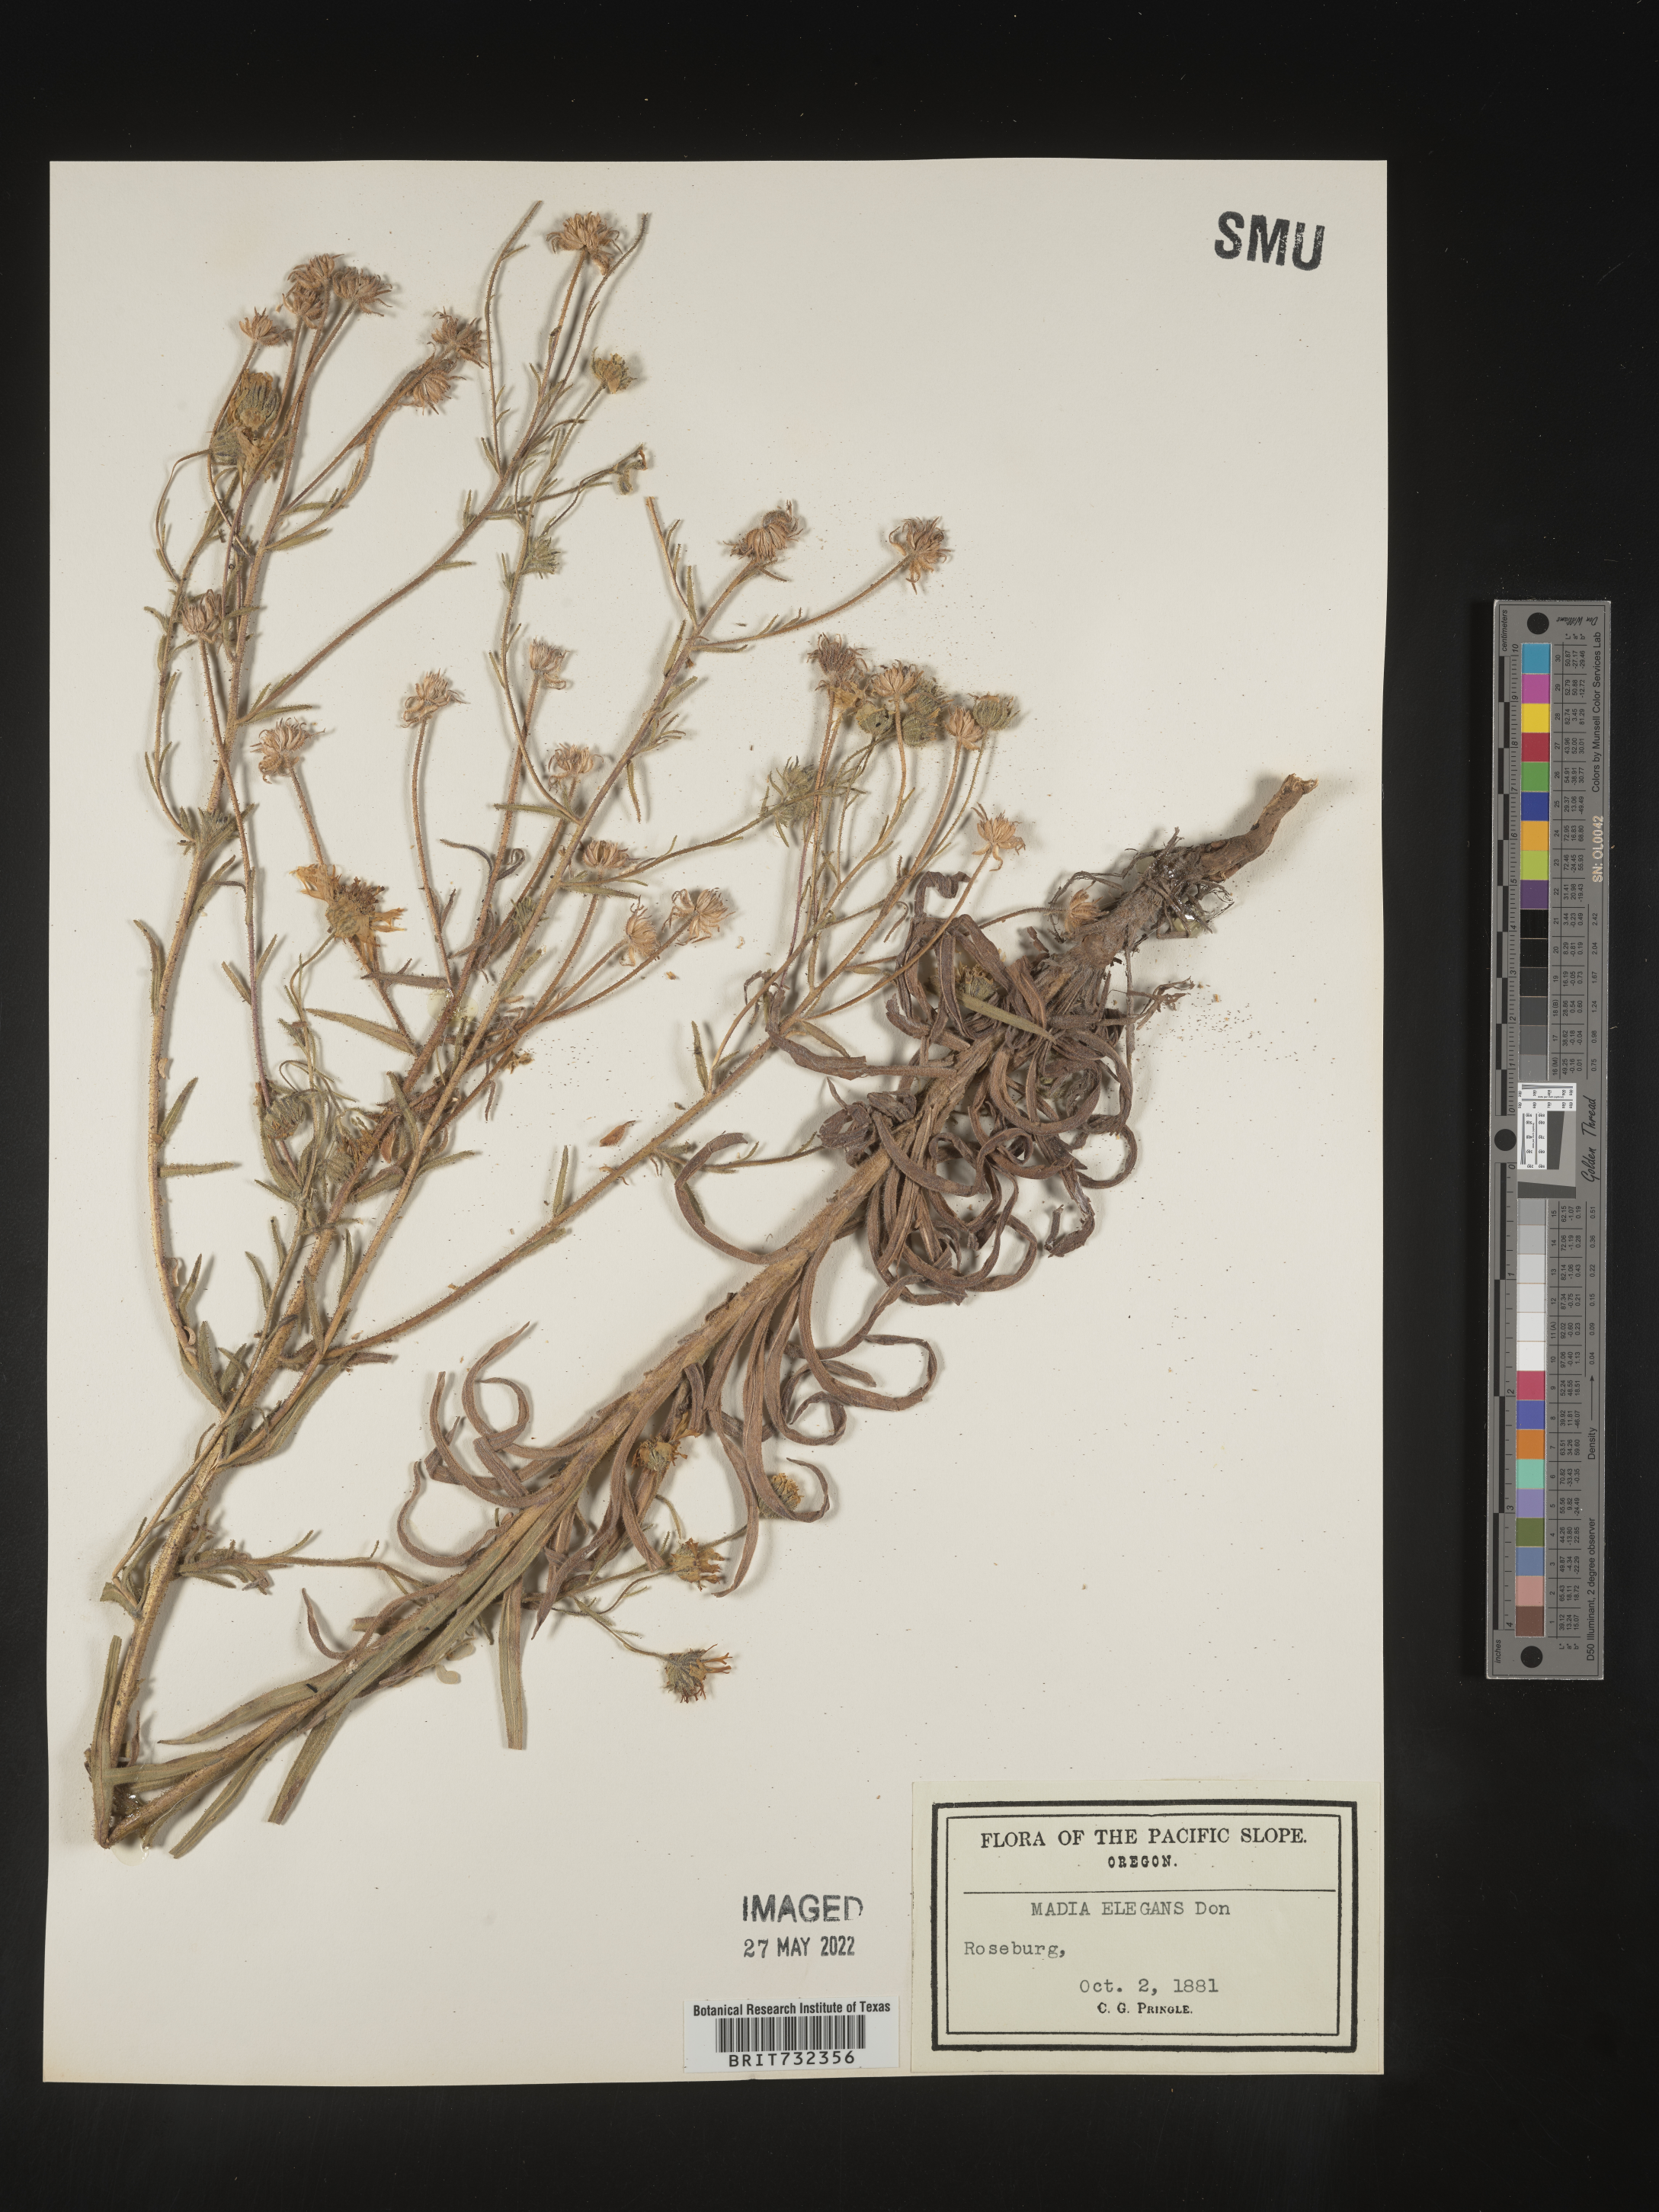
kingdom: Plantae
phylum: Tracheophyta
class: Magnoliopsida
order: Asterales
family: Asteraceae
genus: Madia
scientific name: Madia
